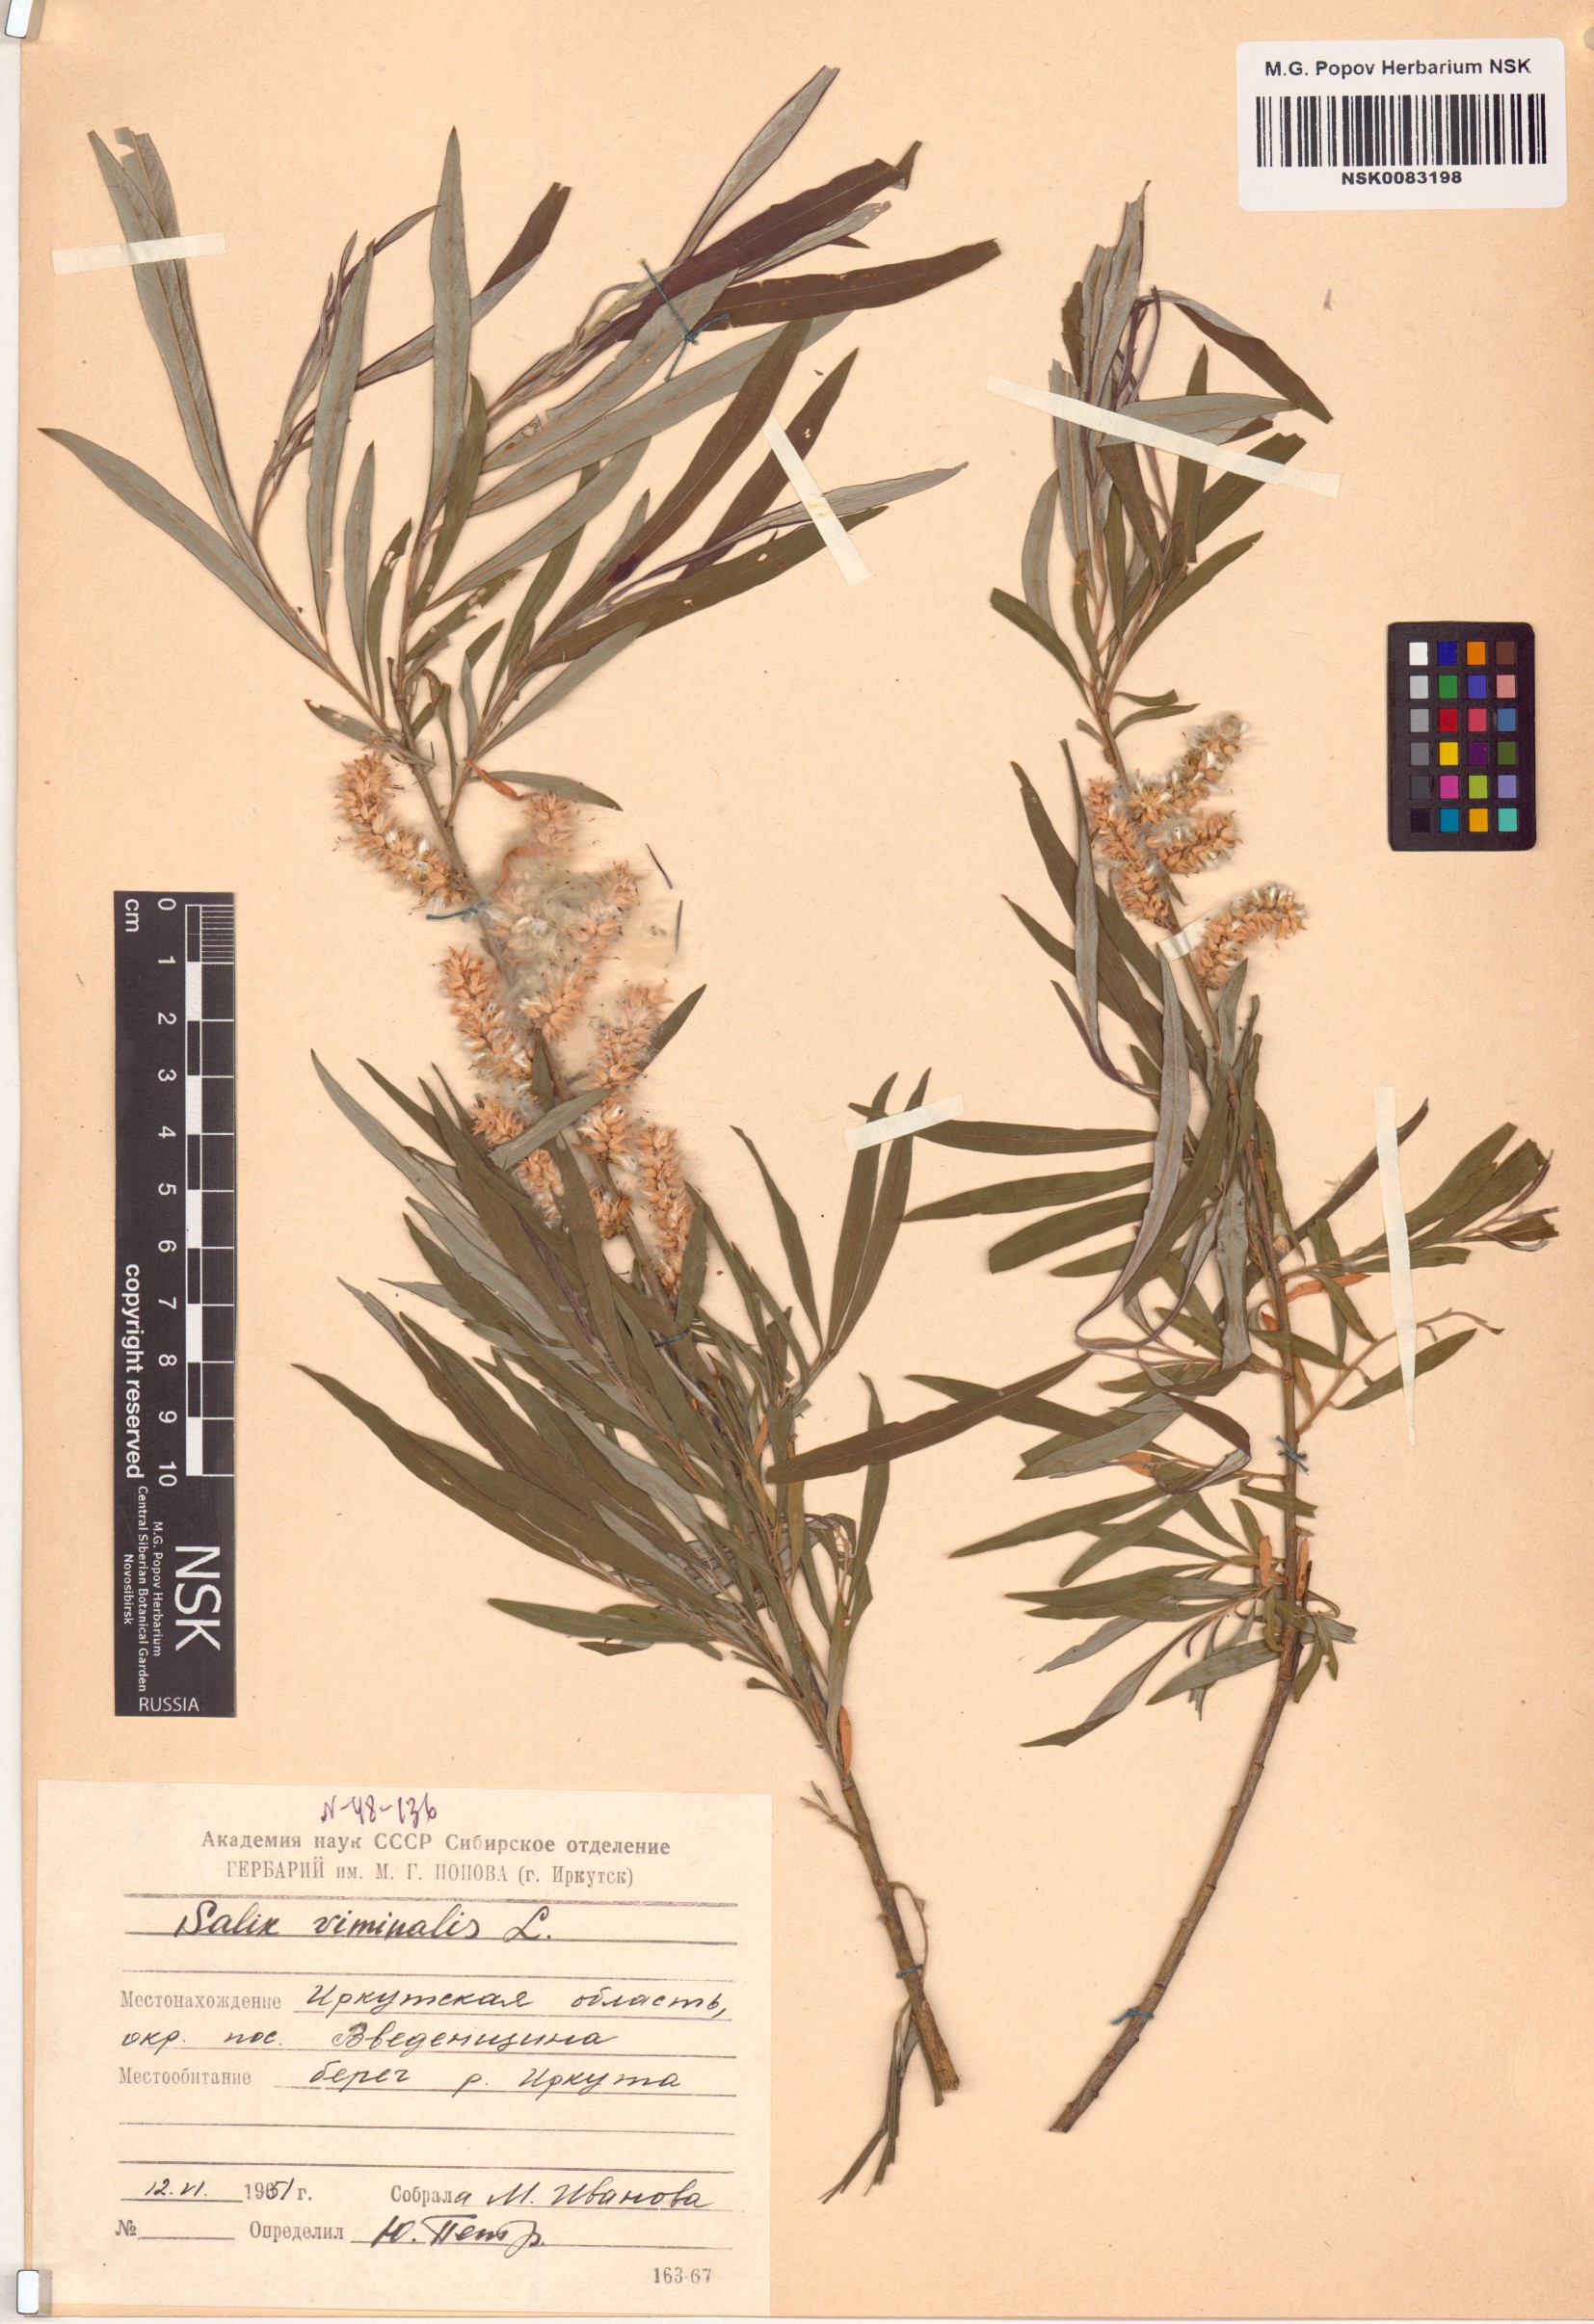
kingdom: Plantae
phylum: Tracheophyta
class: Magnoliopsida
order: Malpighiales
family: Salicaceae
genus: Salix
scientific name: Salix viminalis
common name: Osier
